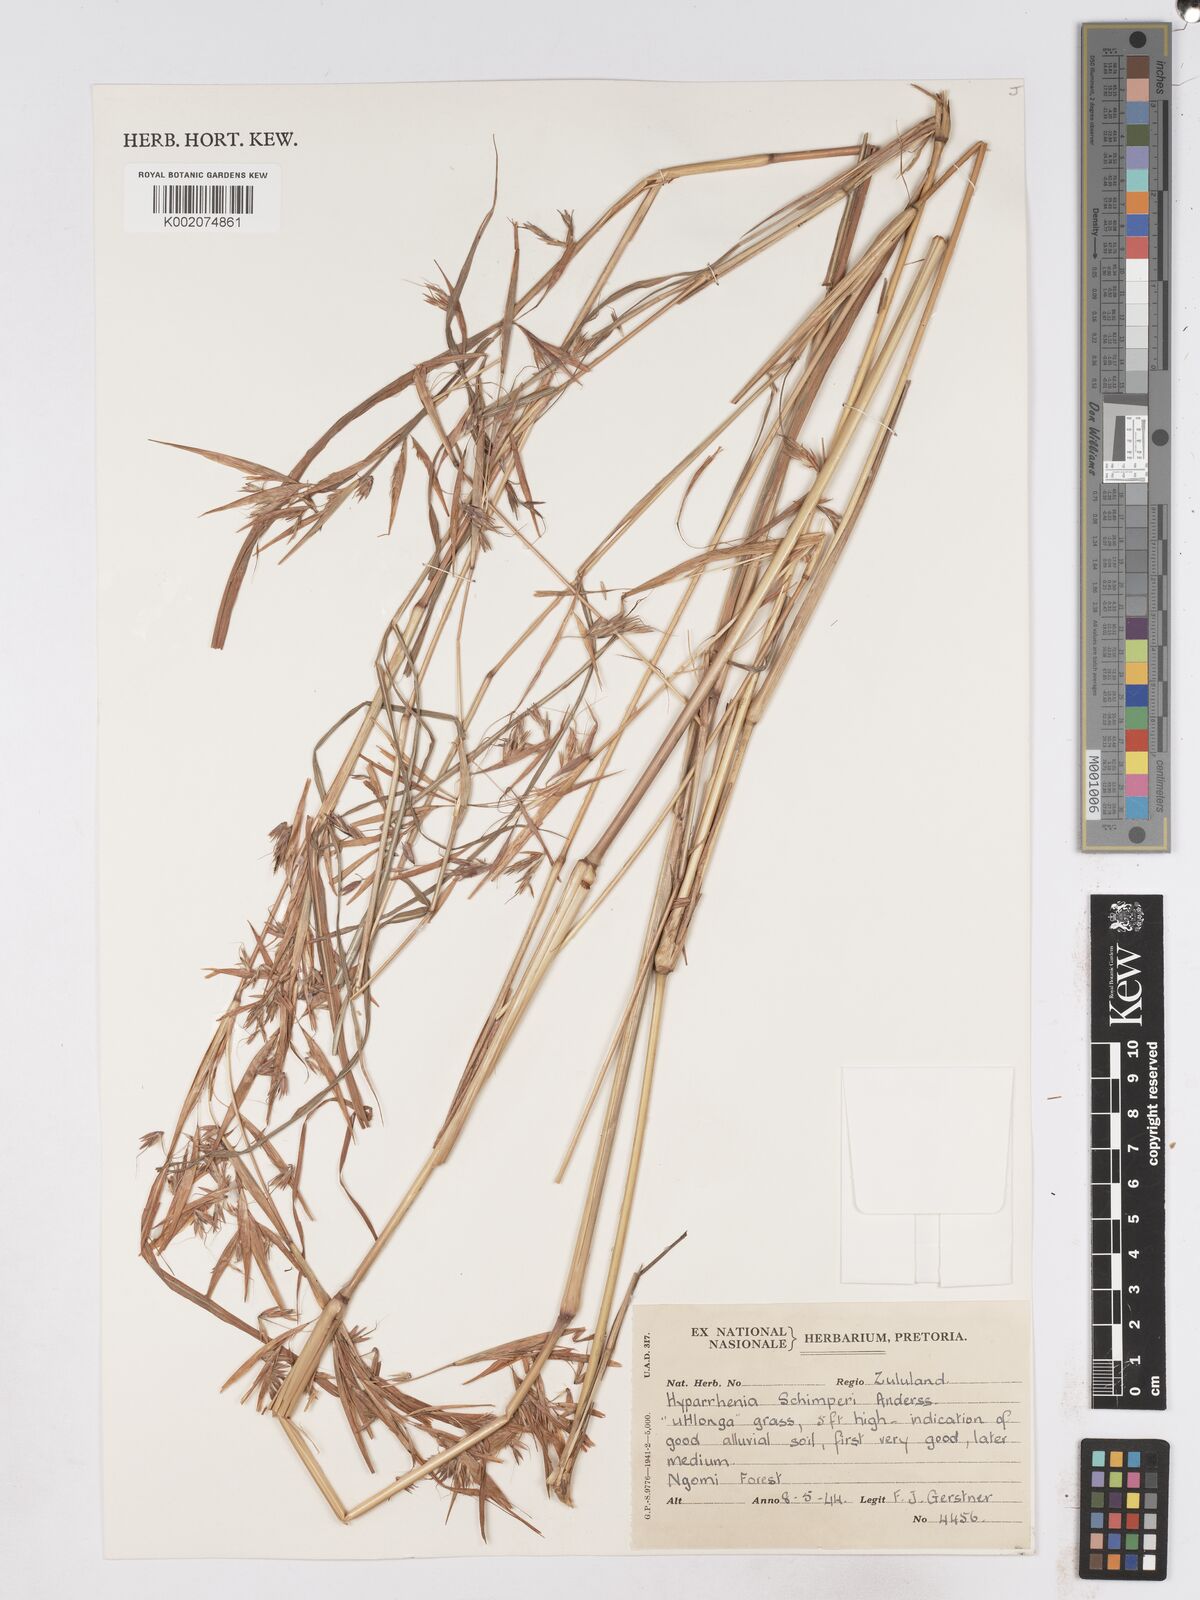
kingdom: Plantae
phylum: Tracheophyta
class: Liliopsida
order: Poales
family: Poaceae
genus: Hyparrhenia
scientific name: Hyparrhenia schimperi
